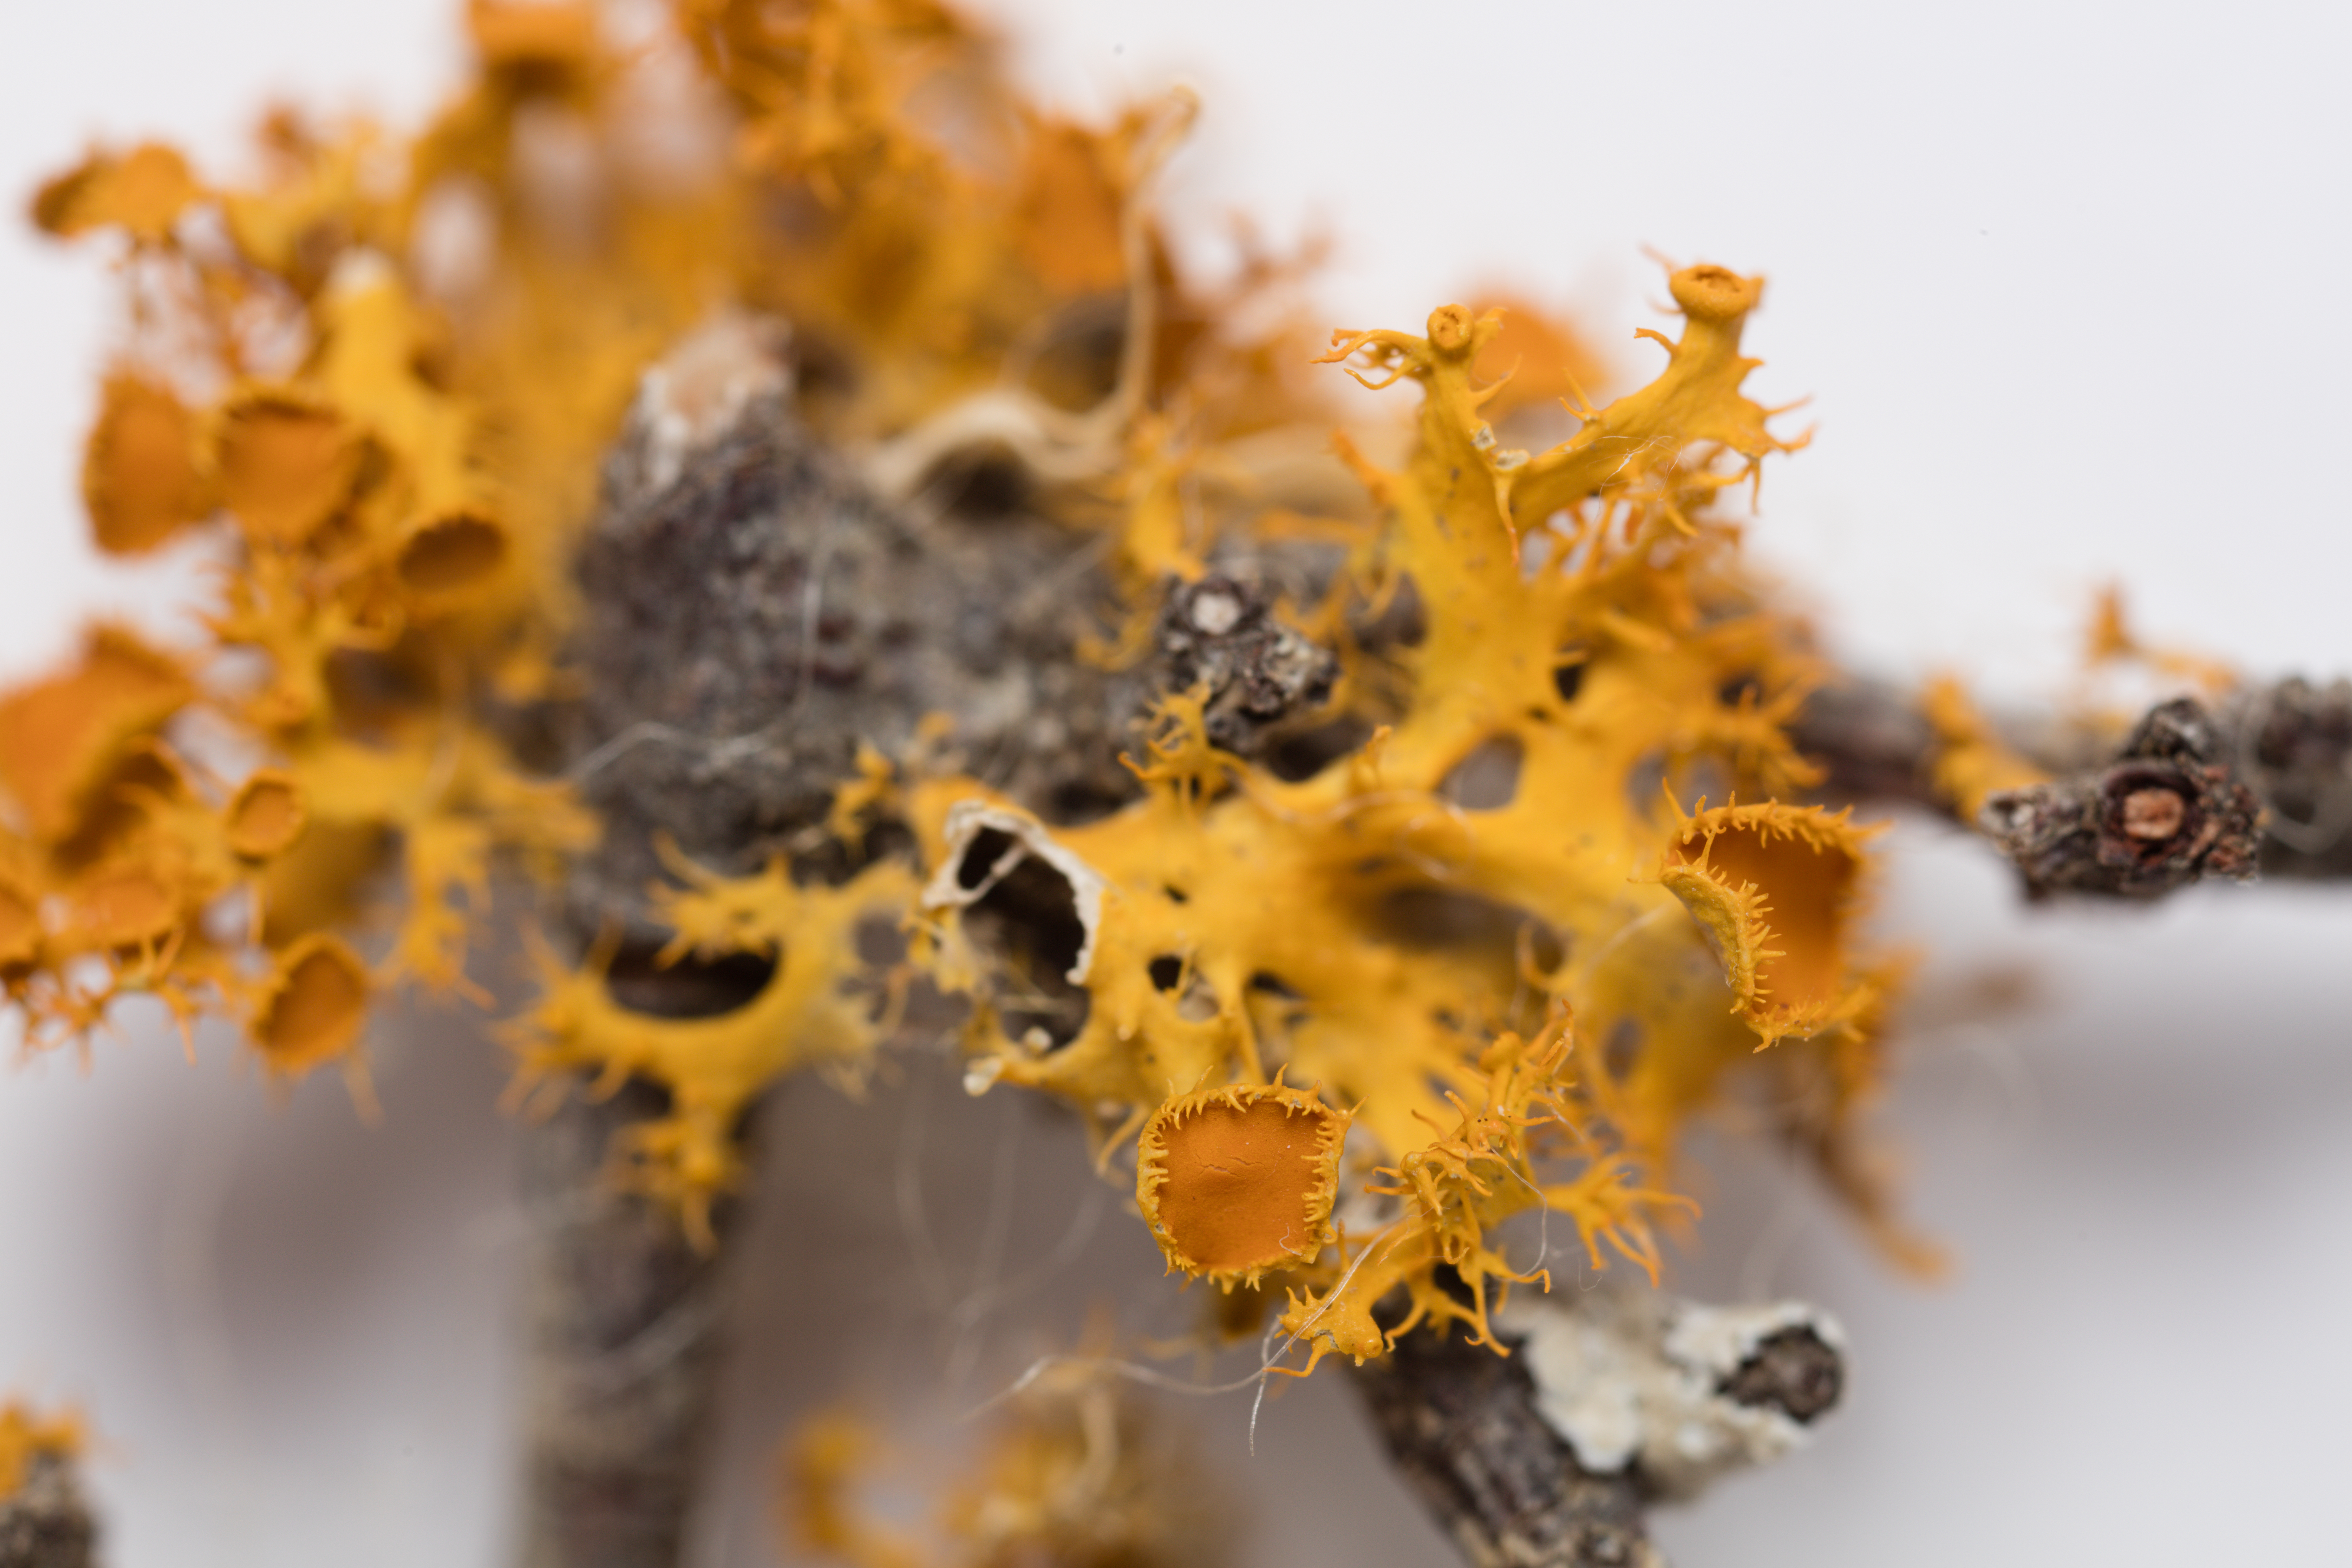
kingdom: Fungi
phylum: Ascomycota
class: Lecanoromycetes
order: Teloschistales
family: Teloschistaceae
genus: Niorma
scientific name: Niorma chrysophthalma
